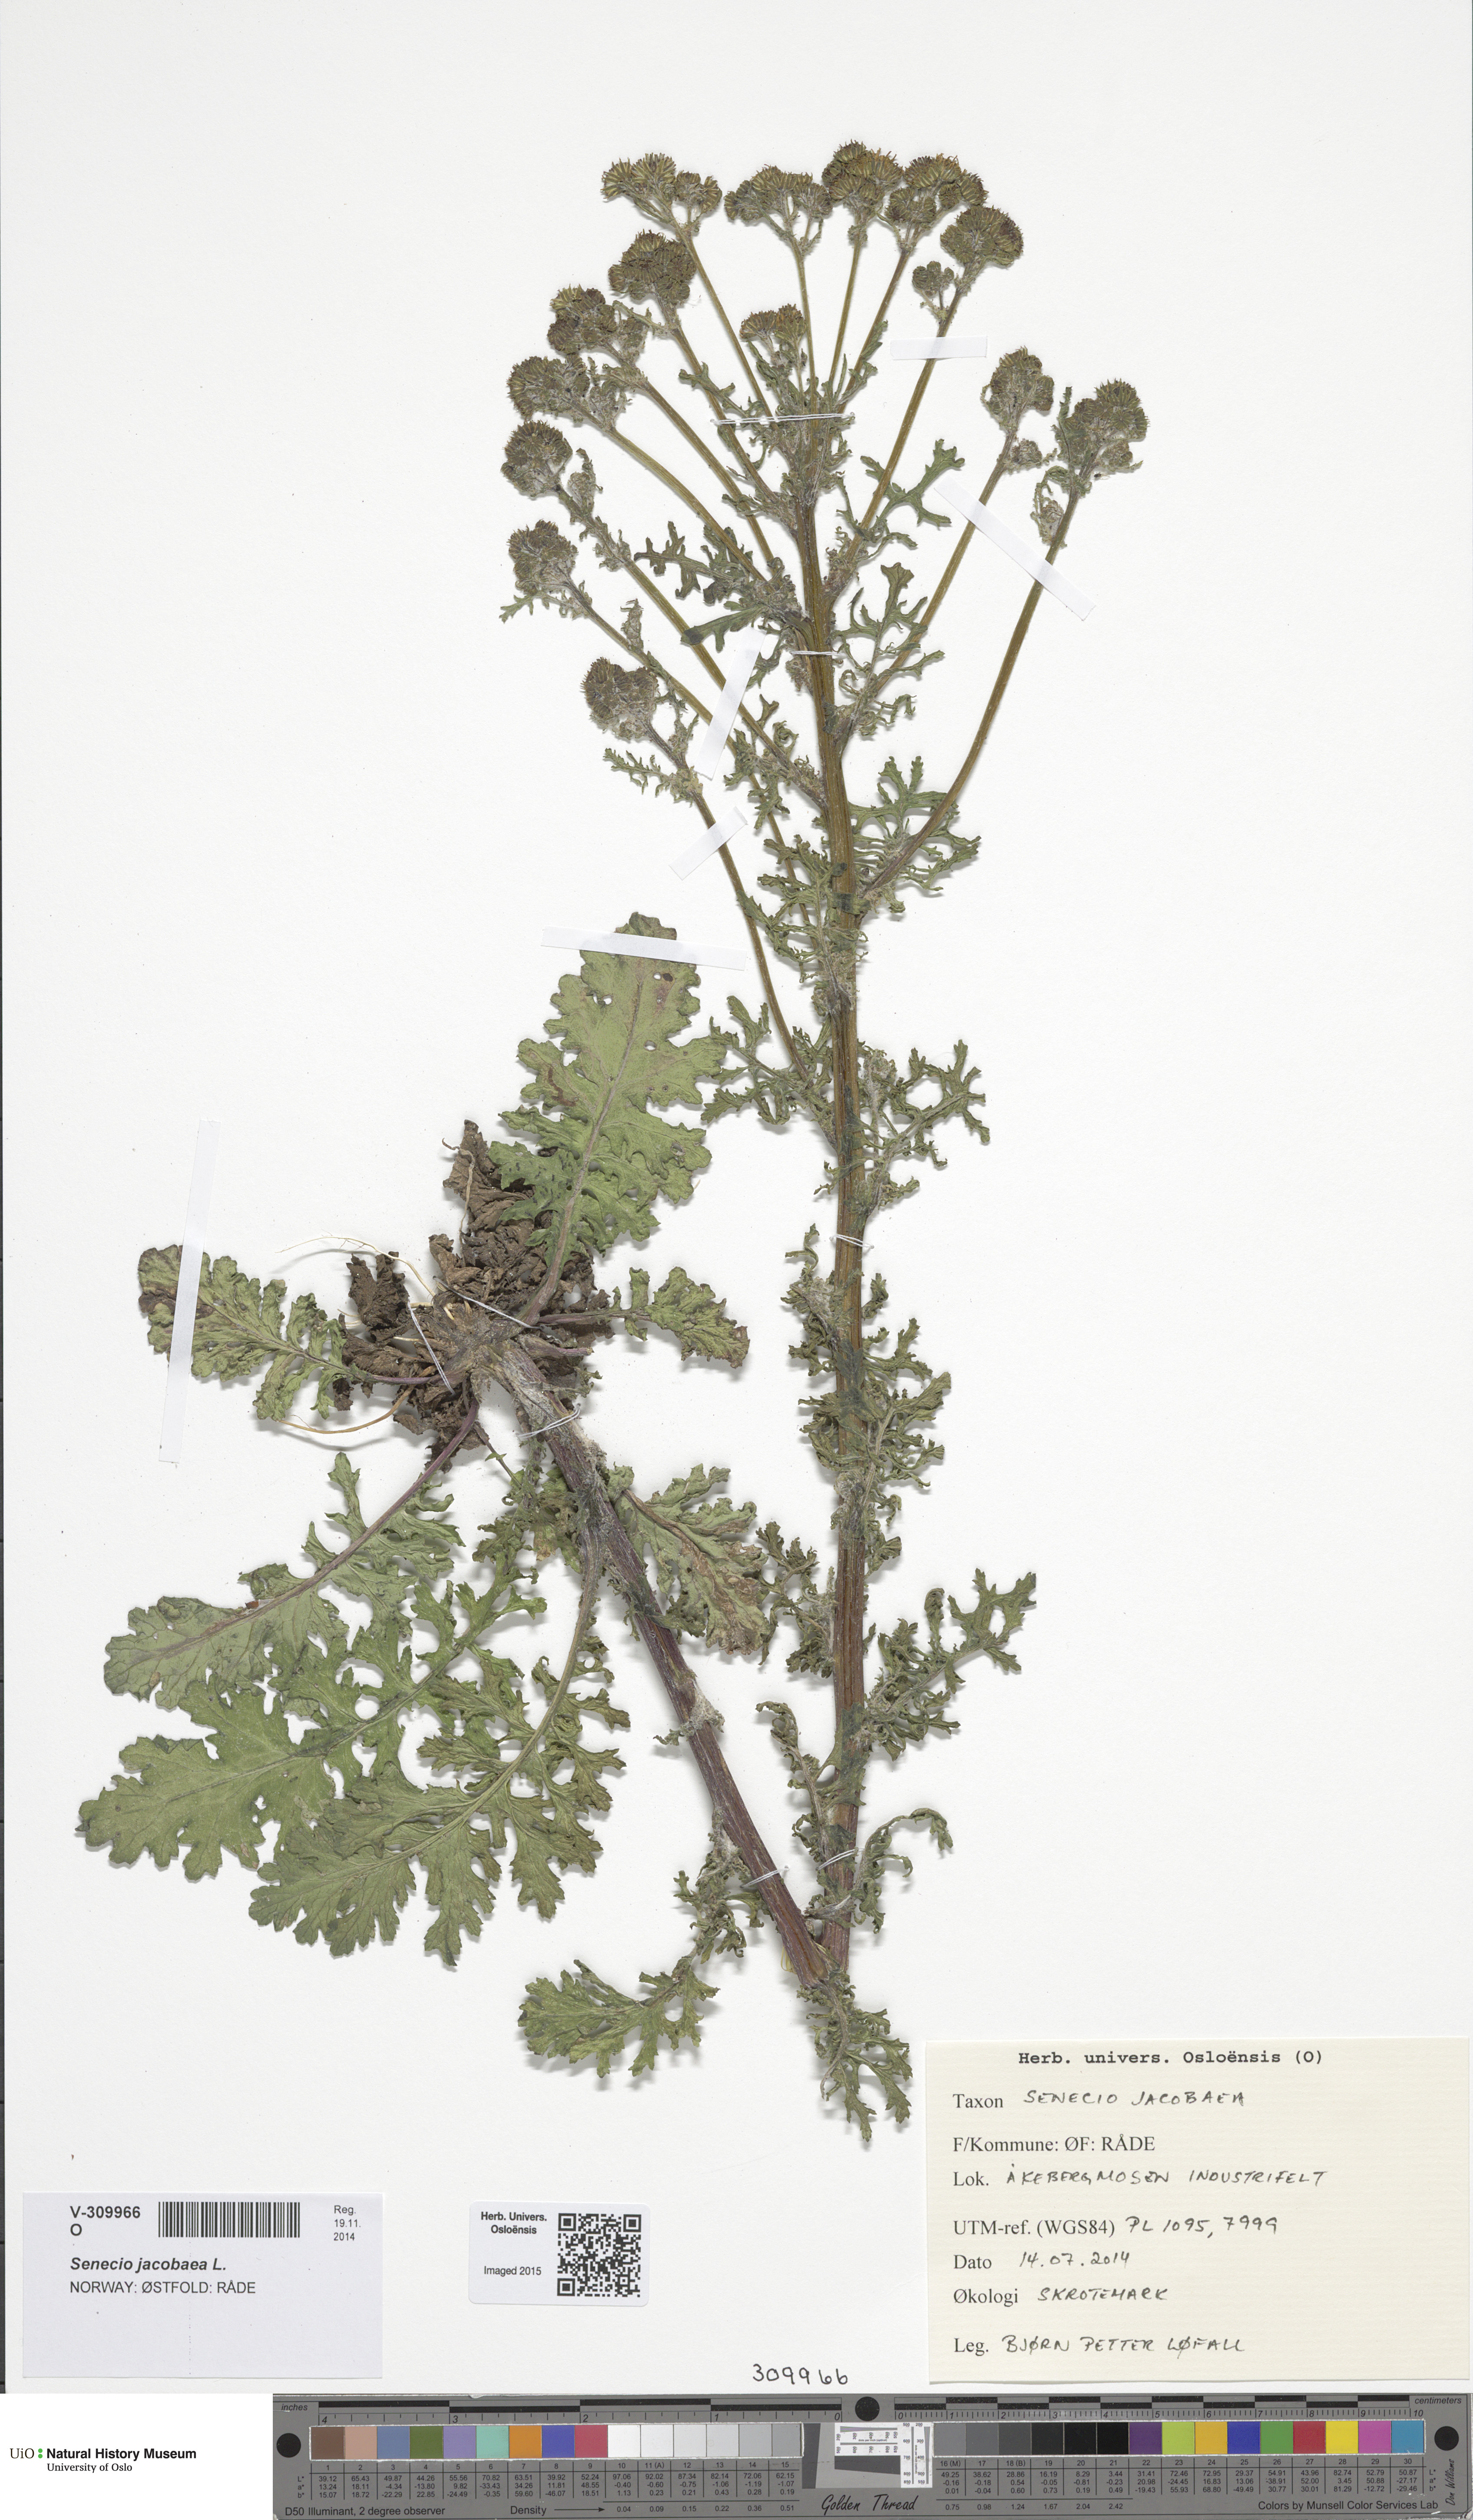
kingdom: Plantae
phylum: Tracheophyta
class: Magnoliopsida
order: Asterales
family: Asteraceae
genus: Jacobaea
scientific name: Jacobaea vulgaris
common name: Stinking willie
